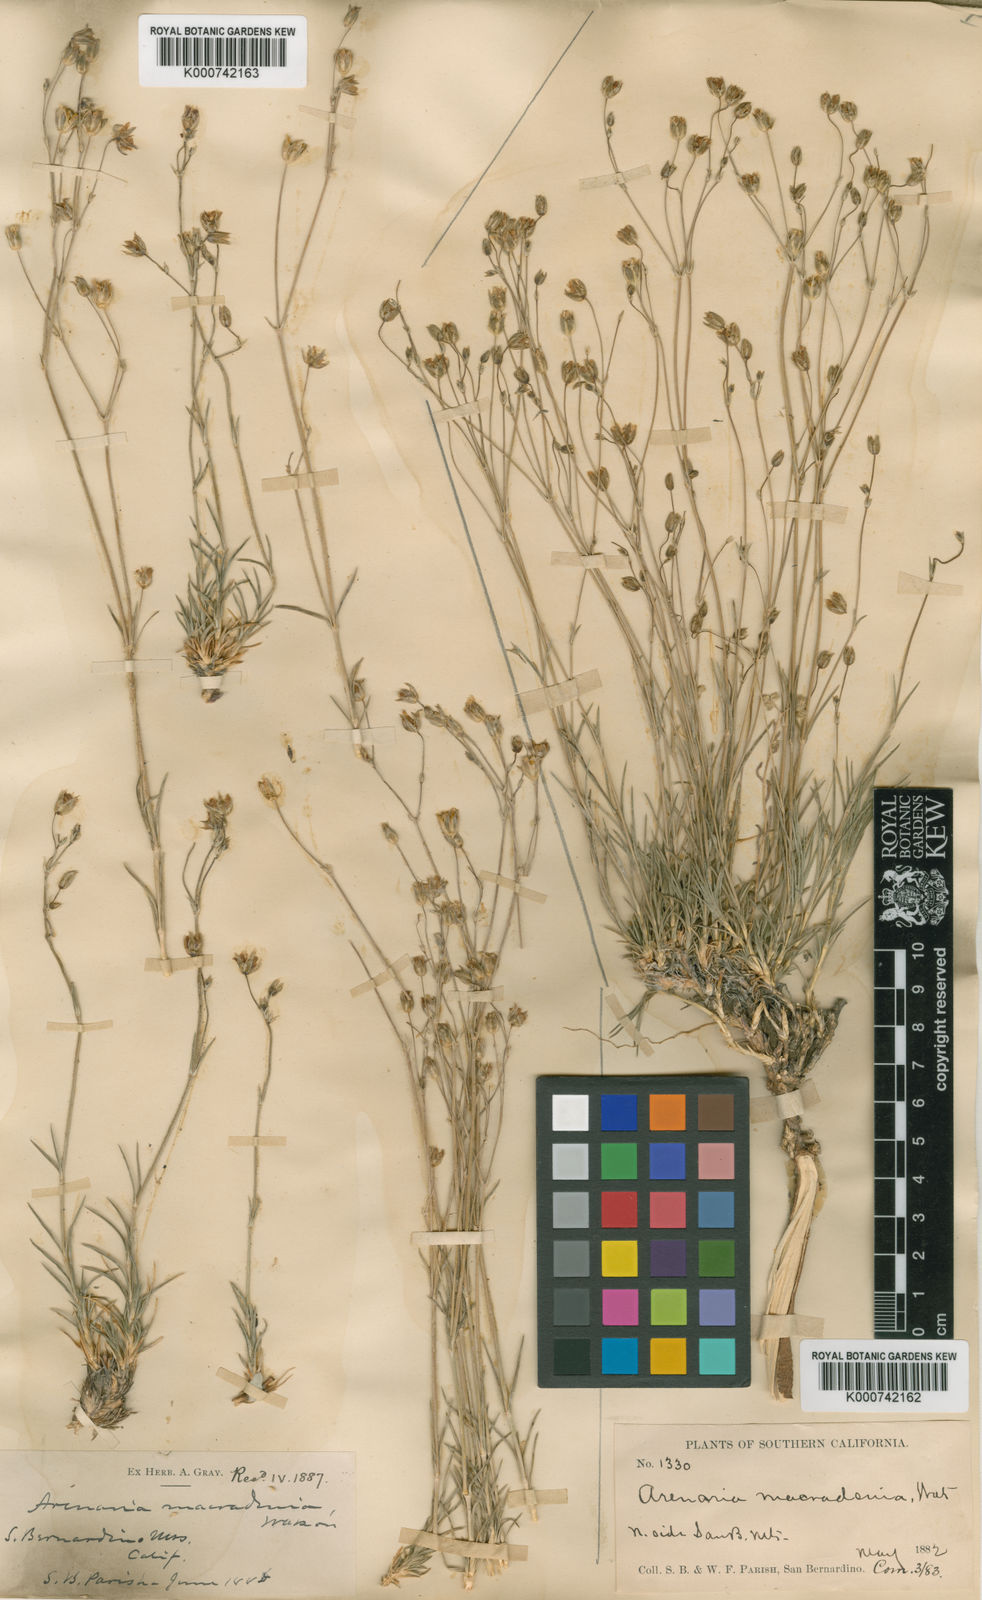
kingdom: Plantae
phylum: Tracheophyta
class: Magnoliopsida
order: Caryophyllales
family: Caryophyllaceae
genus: Eremogone
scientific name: Eremogone macradenia
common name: Mohave sandwort
